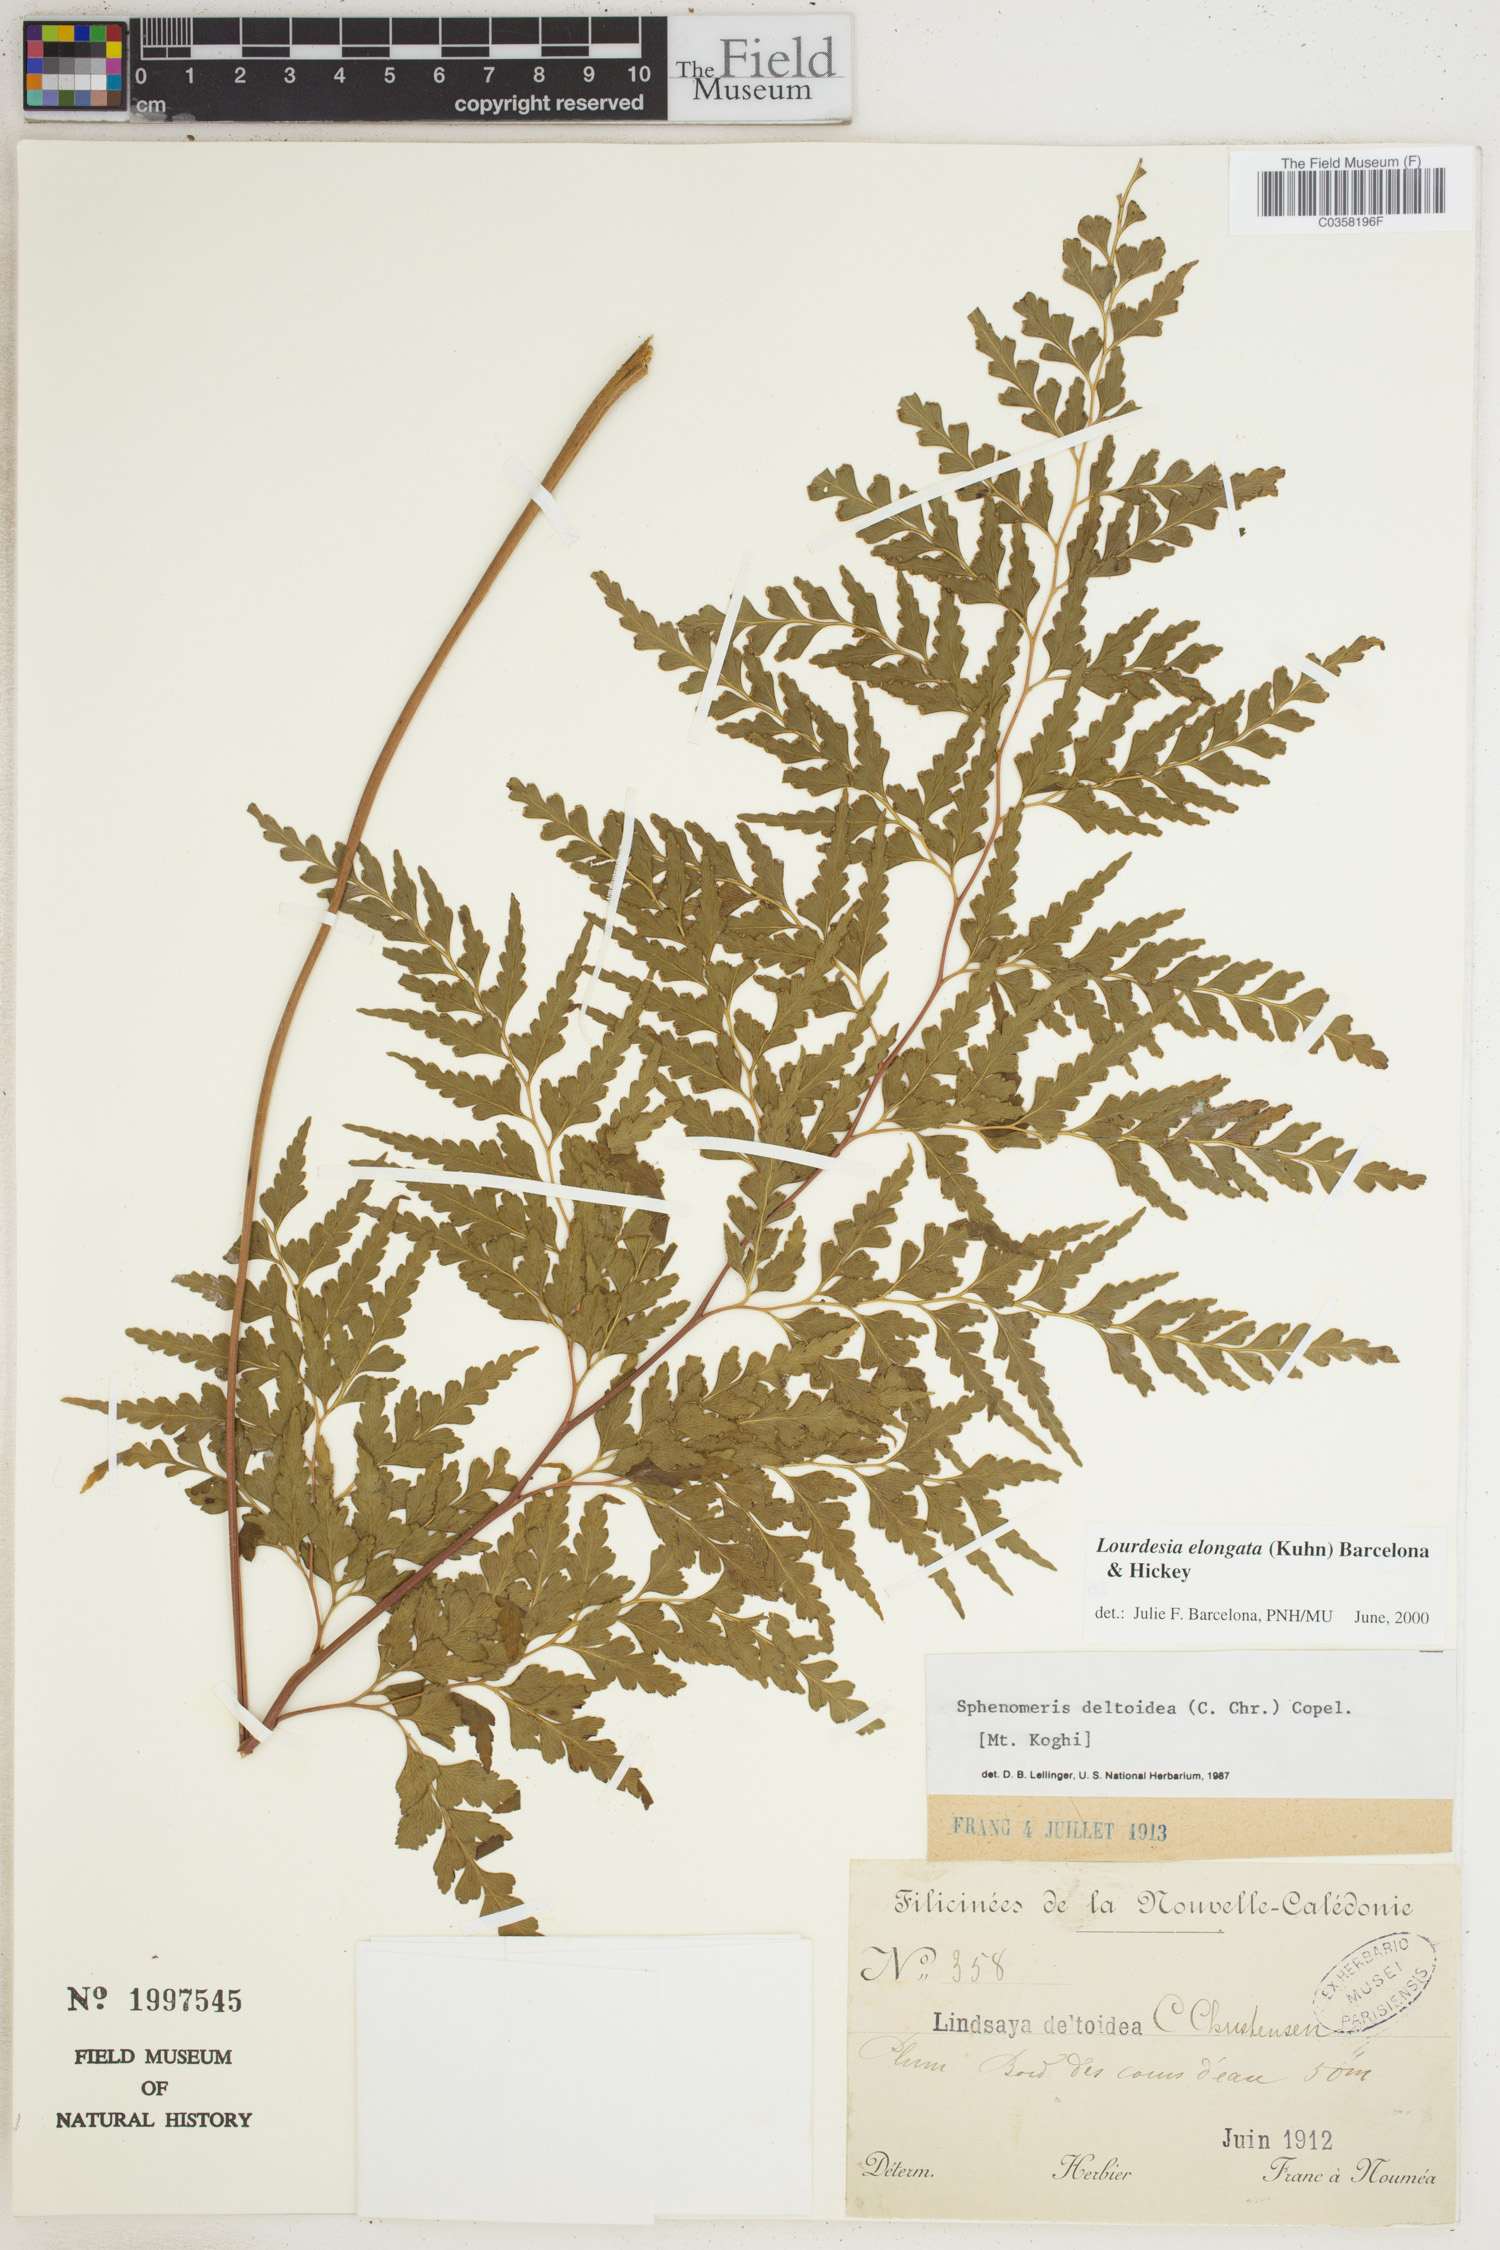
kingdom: Plantae
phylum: Tracheophyta
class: Polypodiopsida
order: Polypodiales
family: Lindsaeaceae
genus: Odontosoria
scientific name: Odontosoria deltoidea
